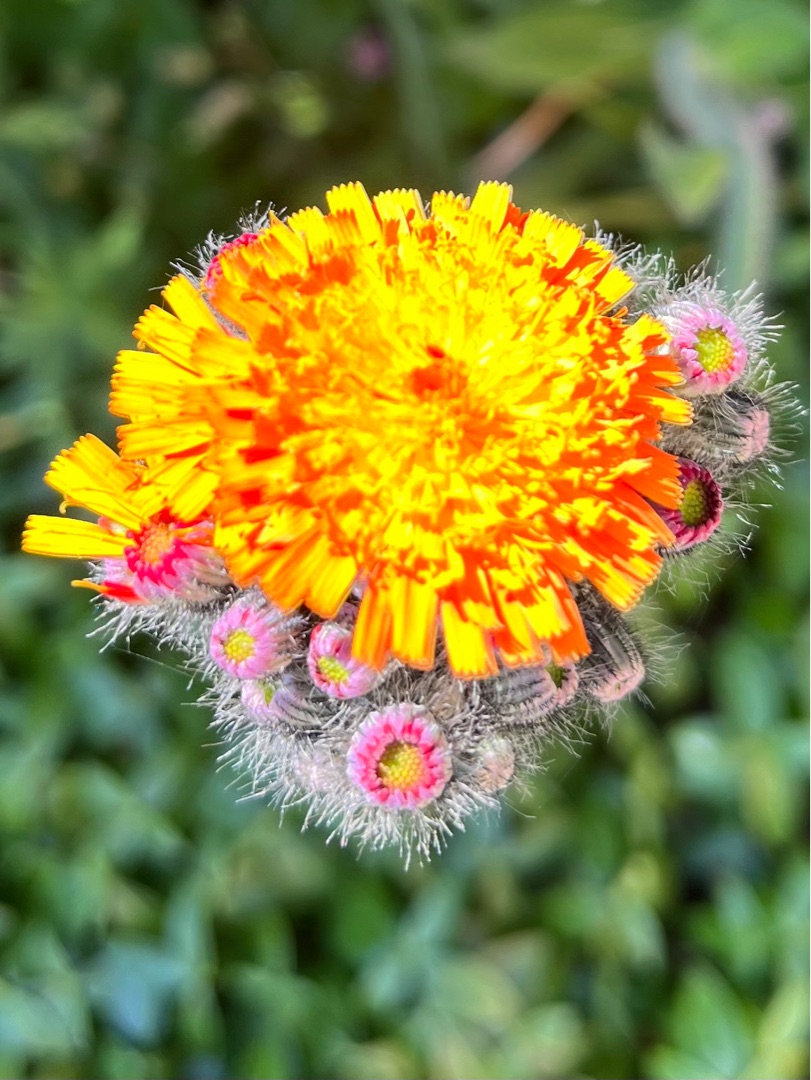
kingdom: Plantae
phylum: Tracheophyta
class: Magnoliopsida
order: Asterales
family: Asteraceae
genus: Pilosella
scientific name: Pilosella aurantiaca
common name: Pomerans-høgeurt
